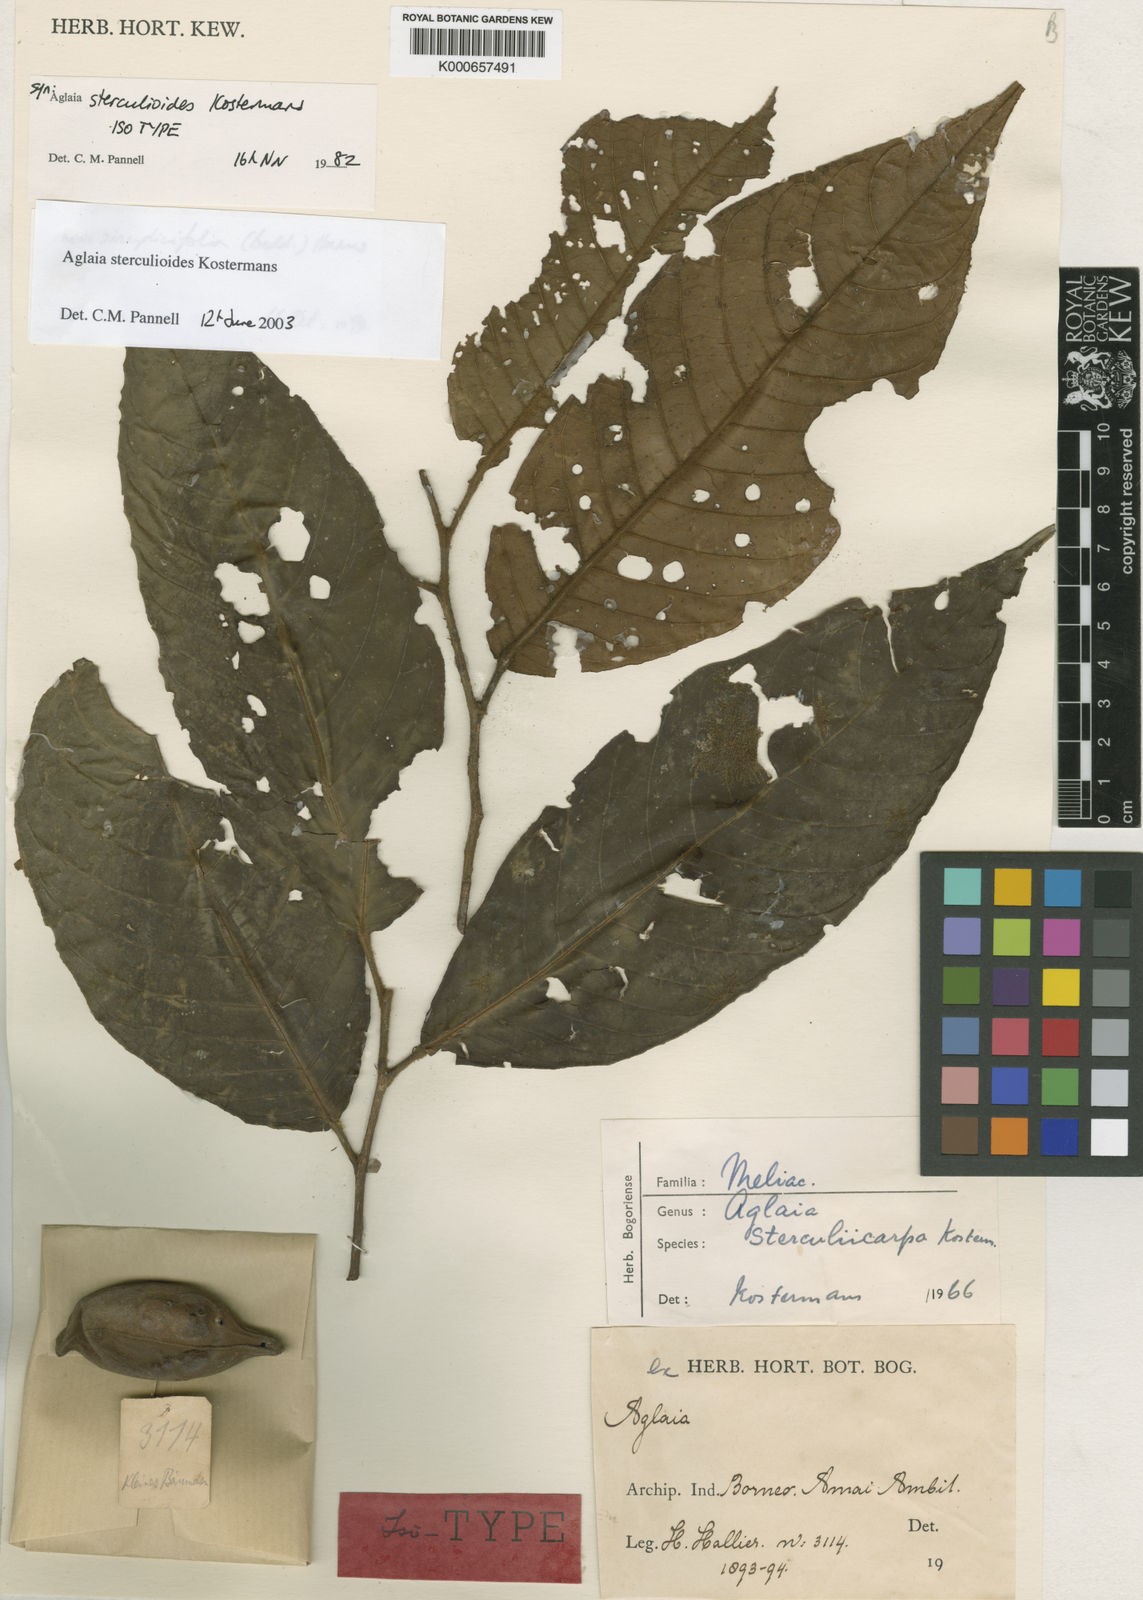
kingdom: Plantae
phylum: Tracheophyta
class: Magnoliopsida
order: Sapindales
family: Meliaceae
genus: Aglaia
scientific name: Aglaia simplicifolia
